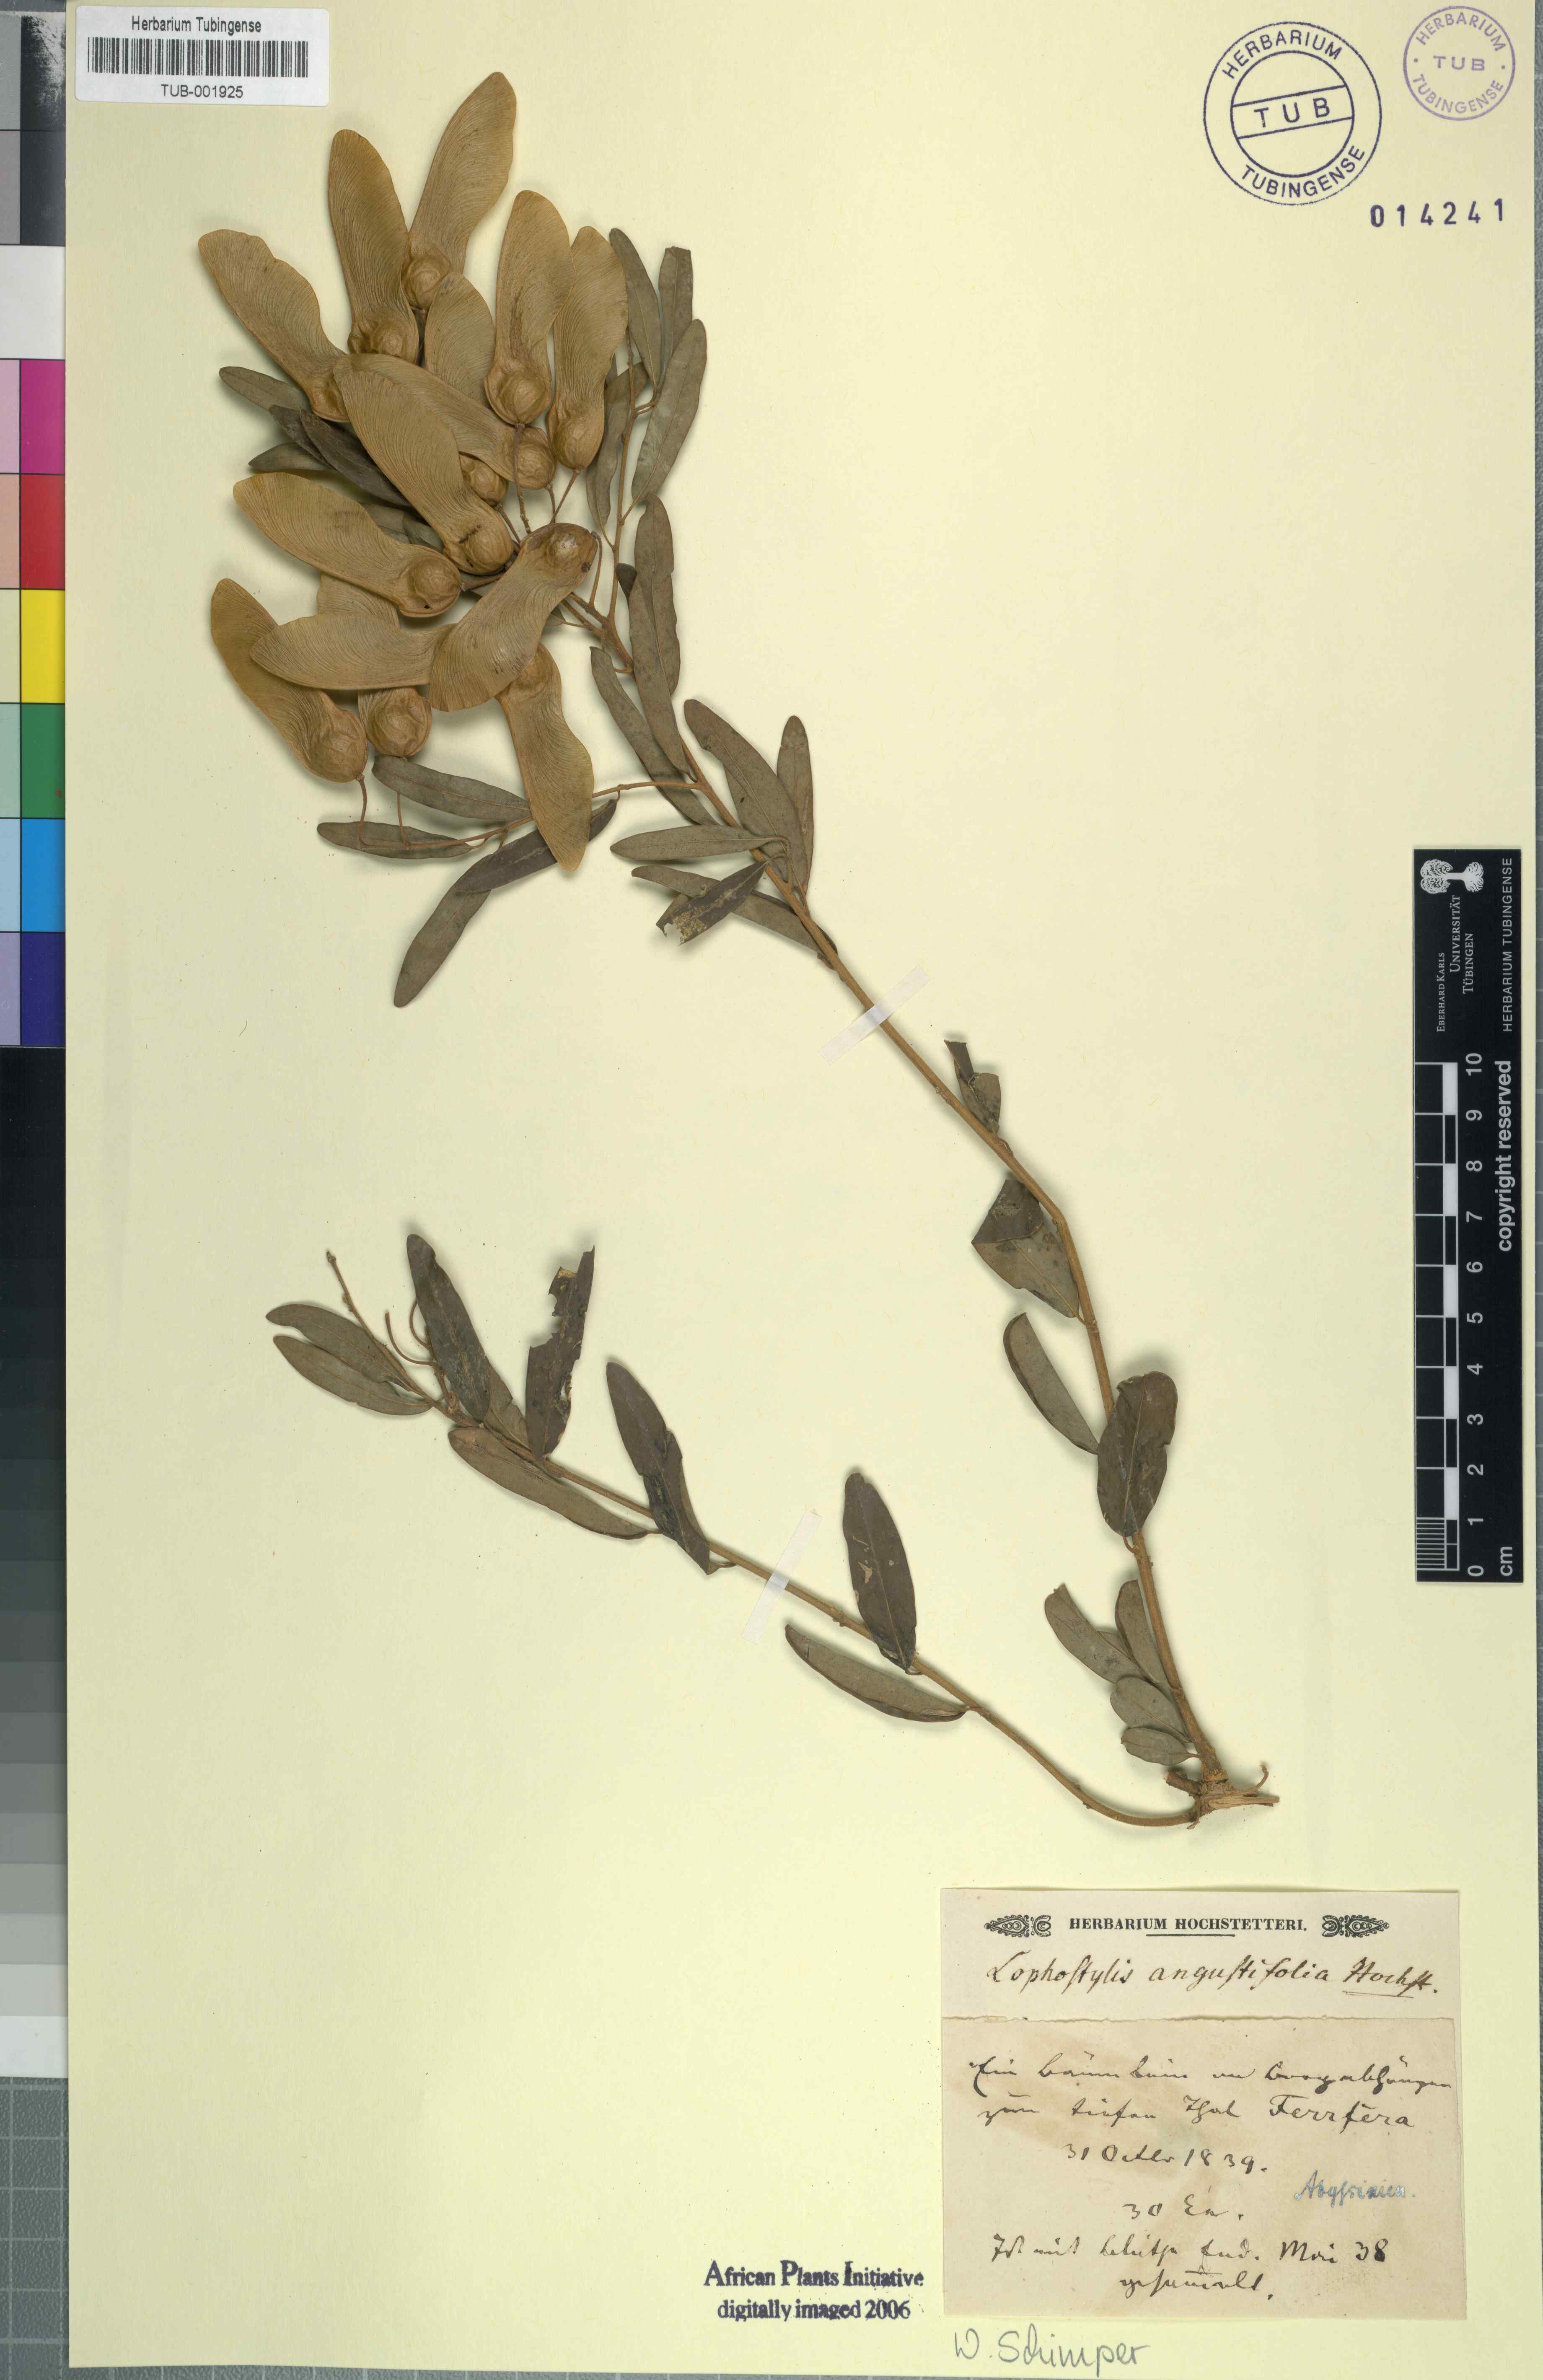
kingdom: Plantae
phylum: Tracheophyta
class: Magnoliopsida
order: Fabales
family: Polygalaceae
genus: Securidaca
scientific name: Securidaca longipedunculata
